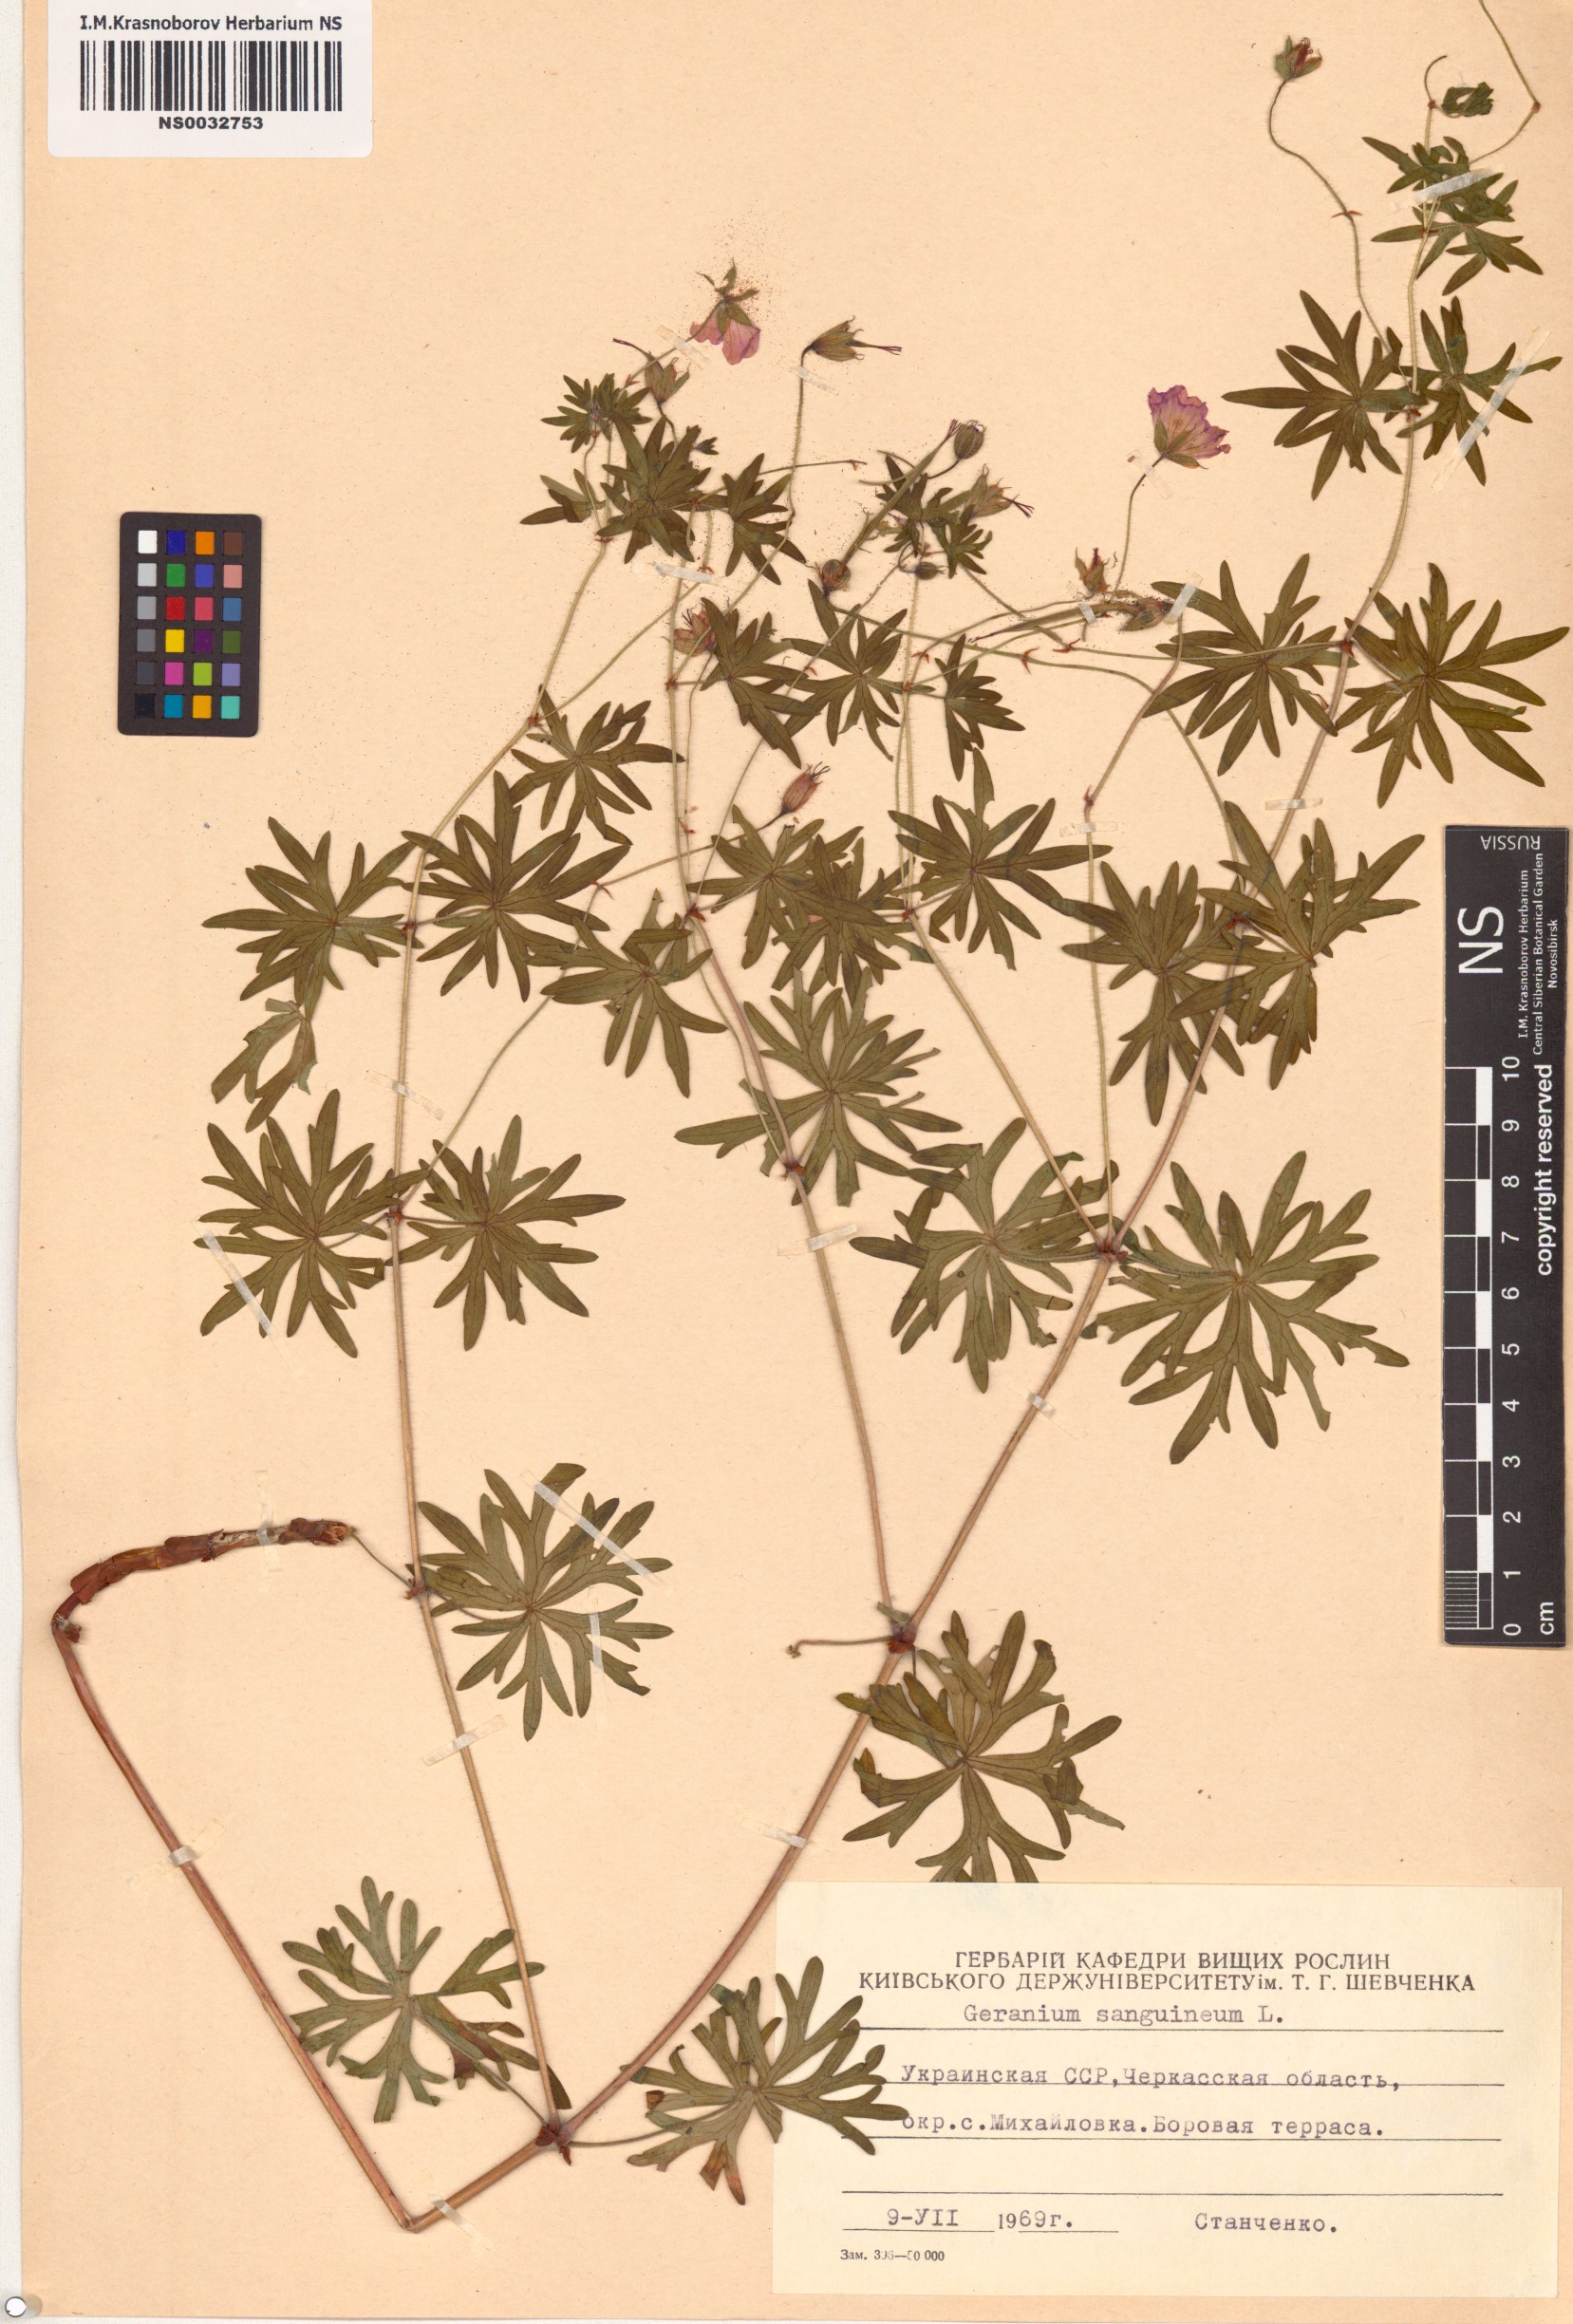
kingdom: Plantae
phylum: Tracheophyta
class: Magnoliopsida
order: Geraniales
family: Geraniaceae
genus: Geranium
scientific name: Geranium sanguineum
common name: Bloody crane's-bill
